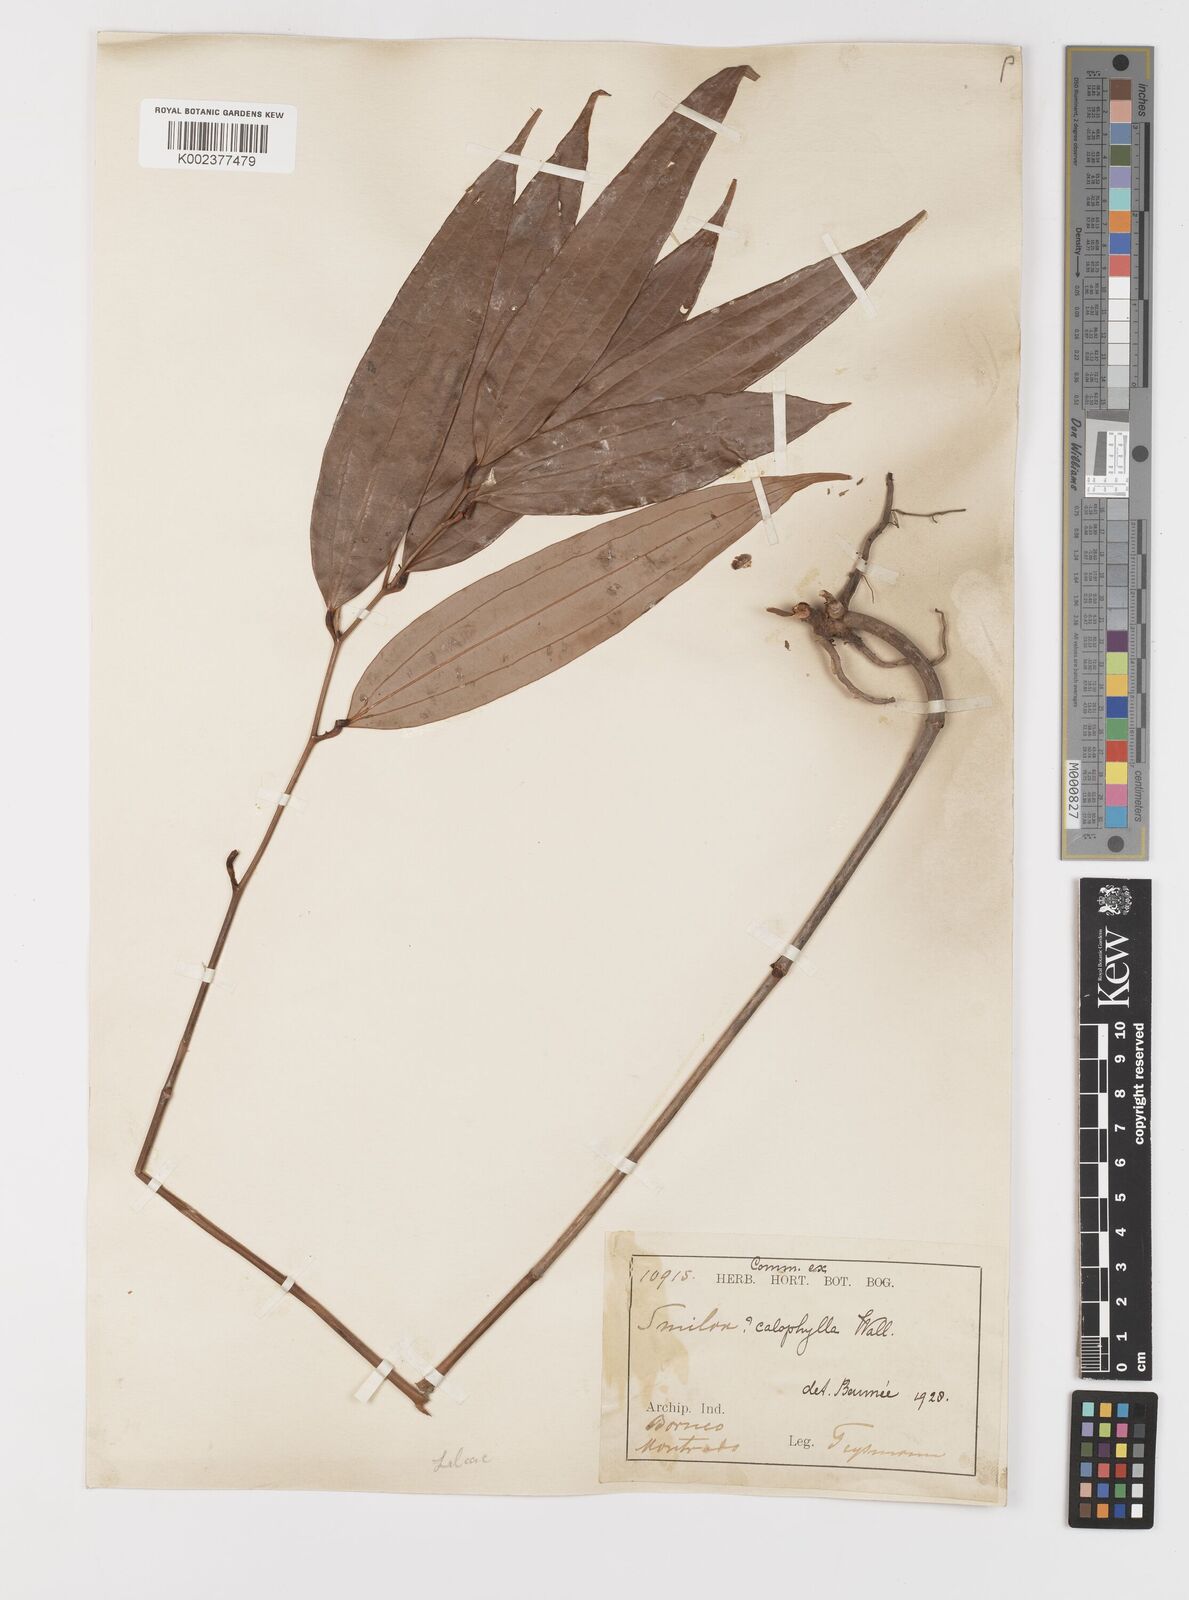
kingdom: Plantae
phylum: Tracheophyta
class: Liliopsida
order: Liliales
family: Smilacaceae
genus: Smilax
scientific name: Smilax calophylla
